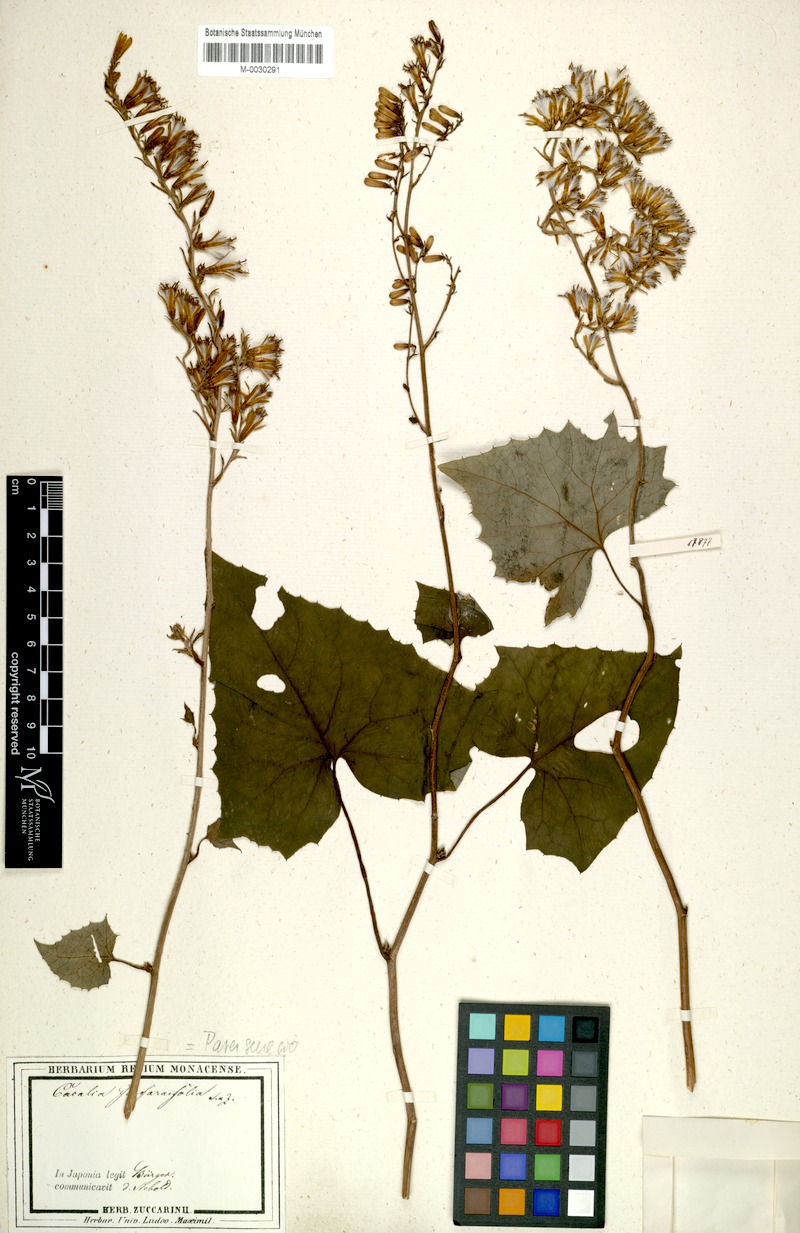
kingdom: Plantae
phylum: Tracheophyta
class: Magnoliopsida
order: Asterales
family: Asteraceae
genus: Parasenecio
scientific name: Parasenecio farfarifolius
